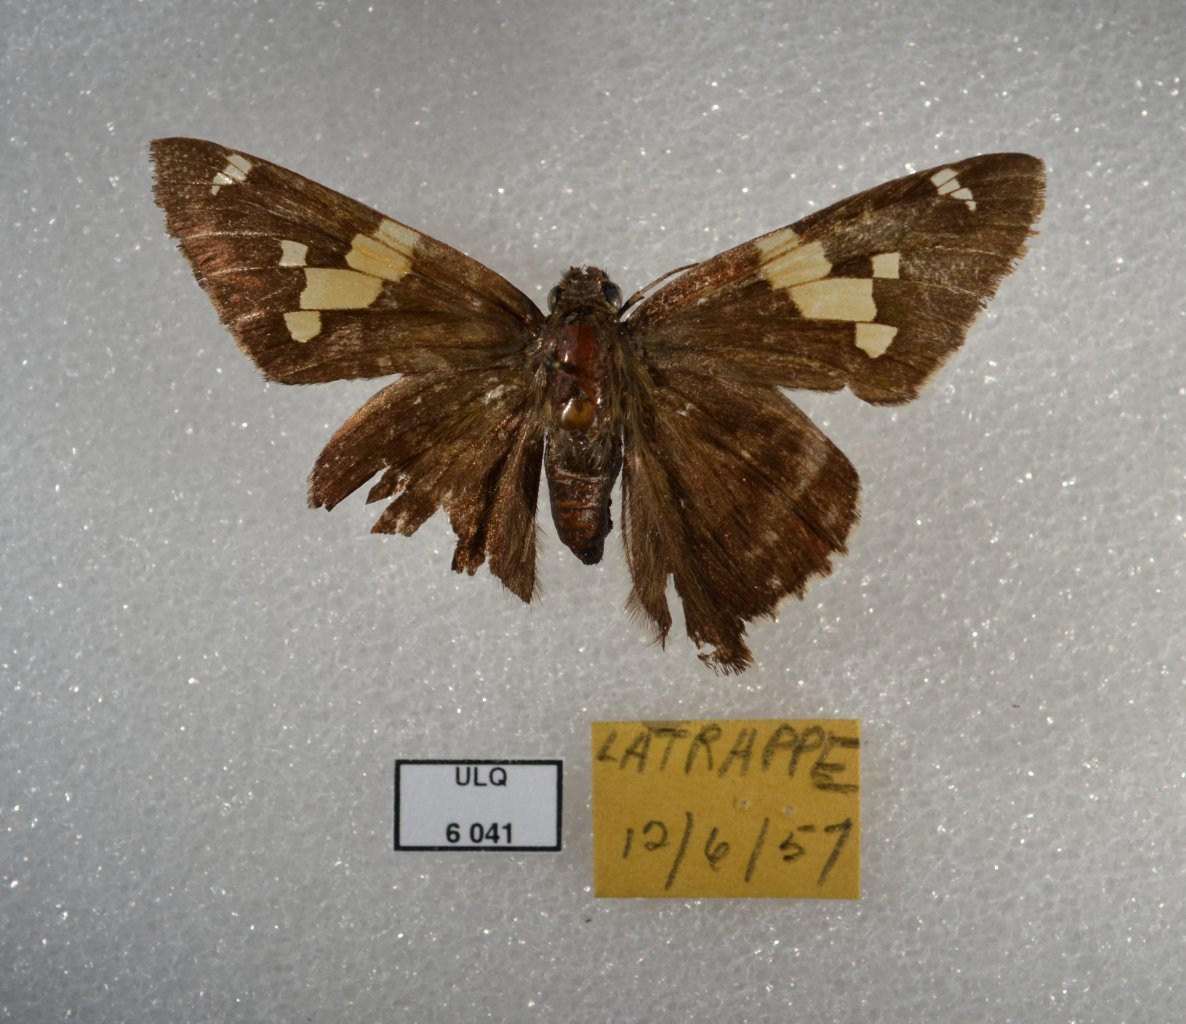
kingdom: Animalia
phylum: Arthropoda
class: Insecta
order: Lepidoptera
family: Hesperiidae
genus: Epargyreus
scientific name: Epargyreus clarus
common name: Silver-spotted Skipper
